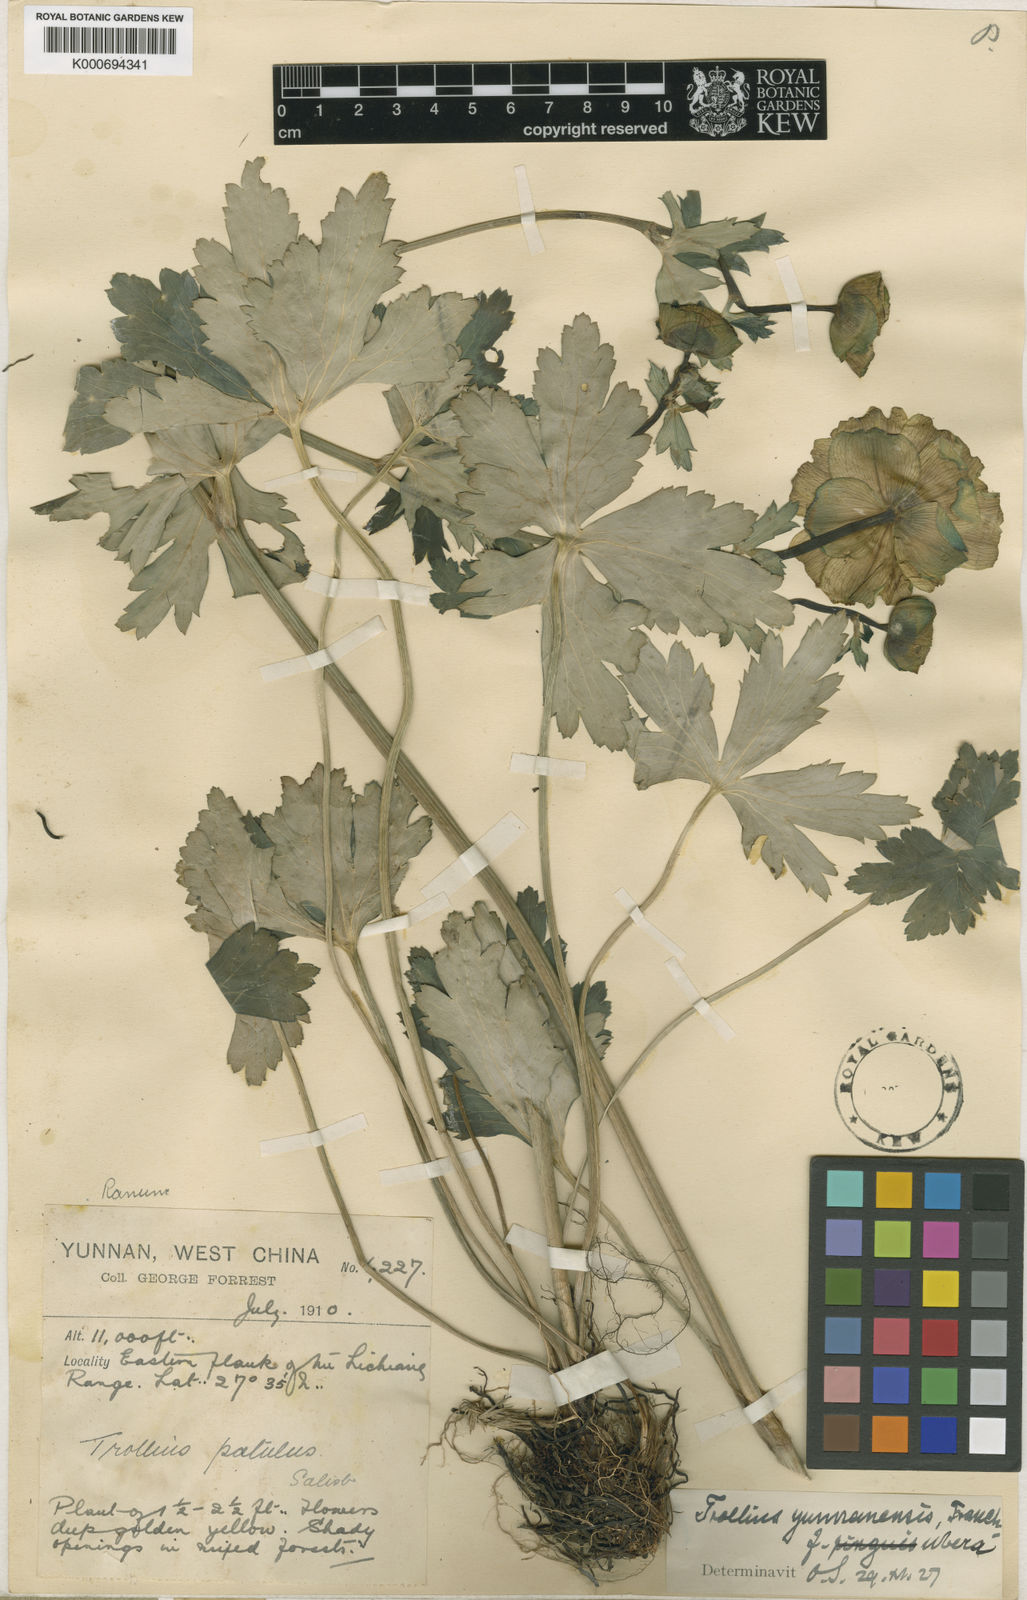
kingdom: Plantae
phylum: Tracheophyta
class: Magnoliopsida
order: Ranunculales
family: Ranunculaceae
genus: Trollius
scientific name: Trollius yunnanensis
